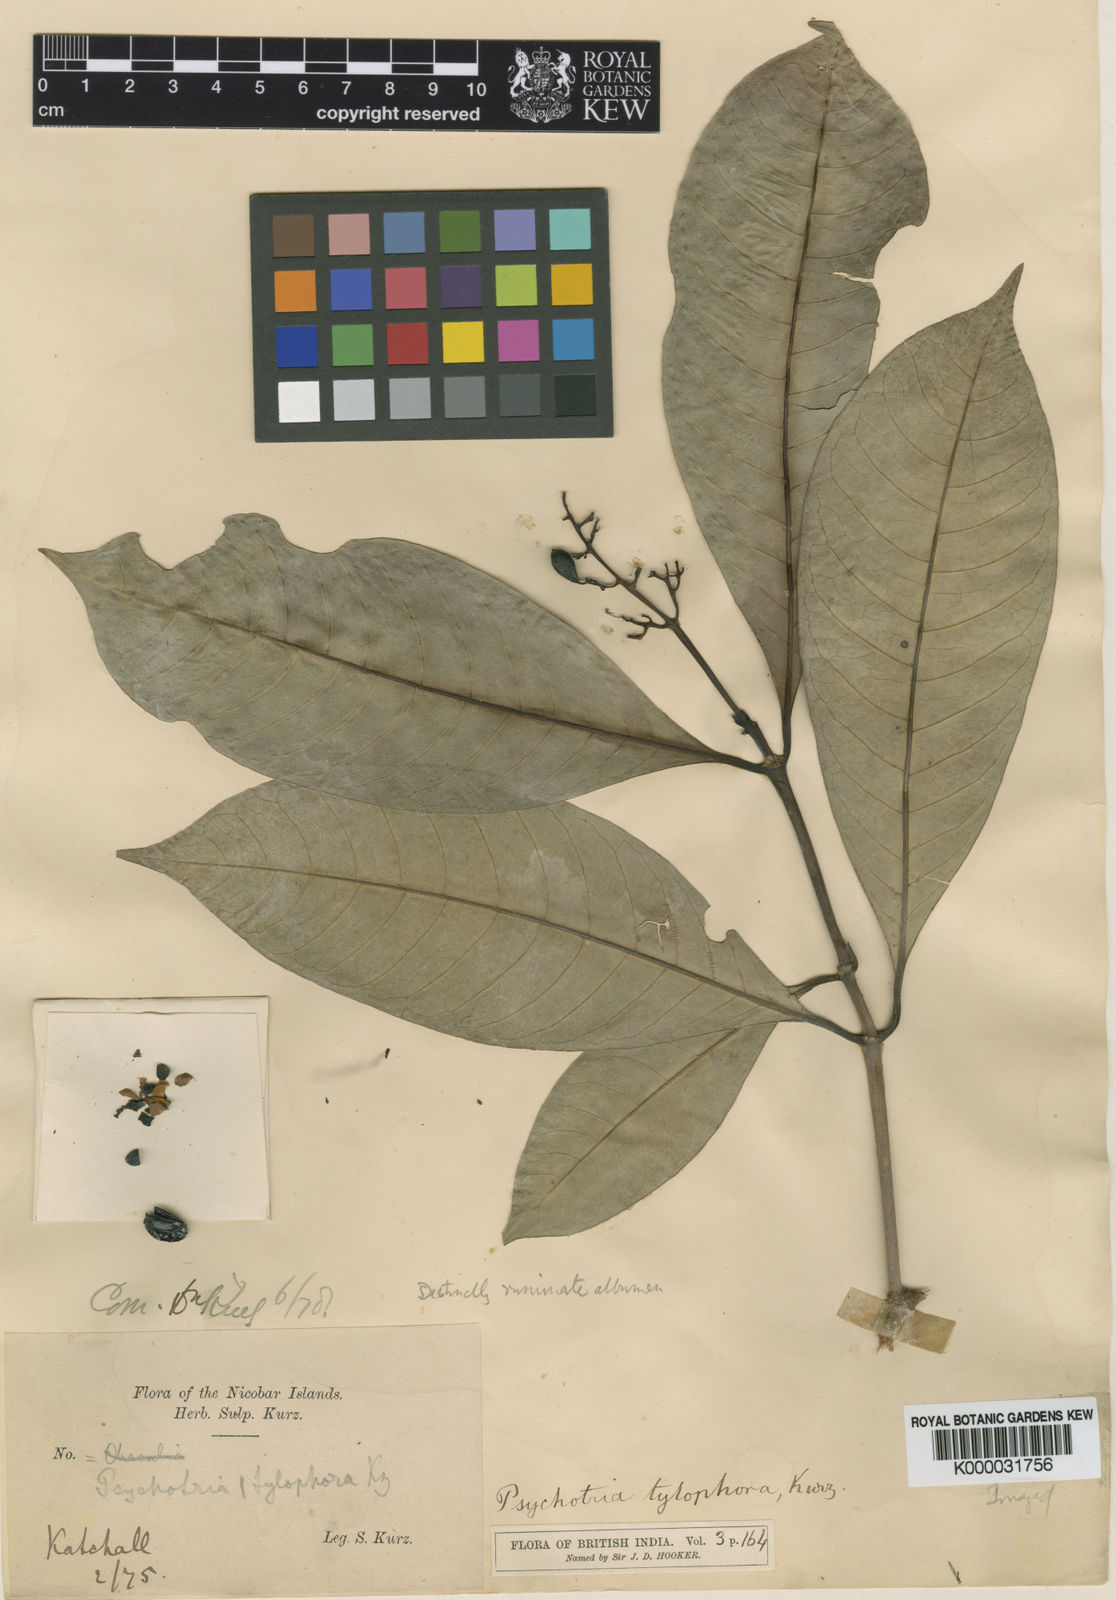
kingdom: Plantae
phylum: Tracheophyta
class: Magnoliopsida
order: Gentianales
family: Rubiaceae
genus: Psychotria
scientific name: Psychotria tylophora
